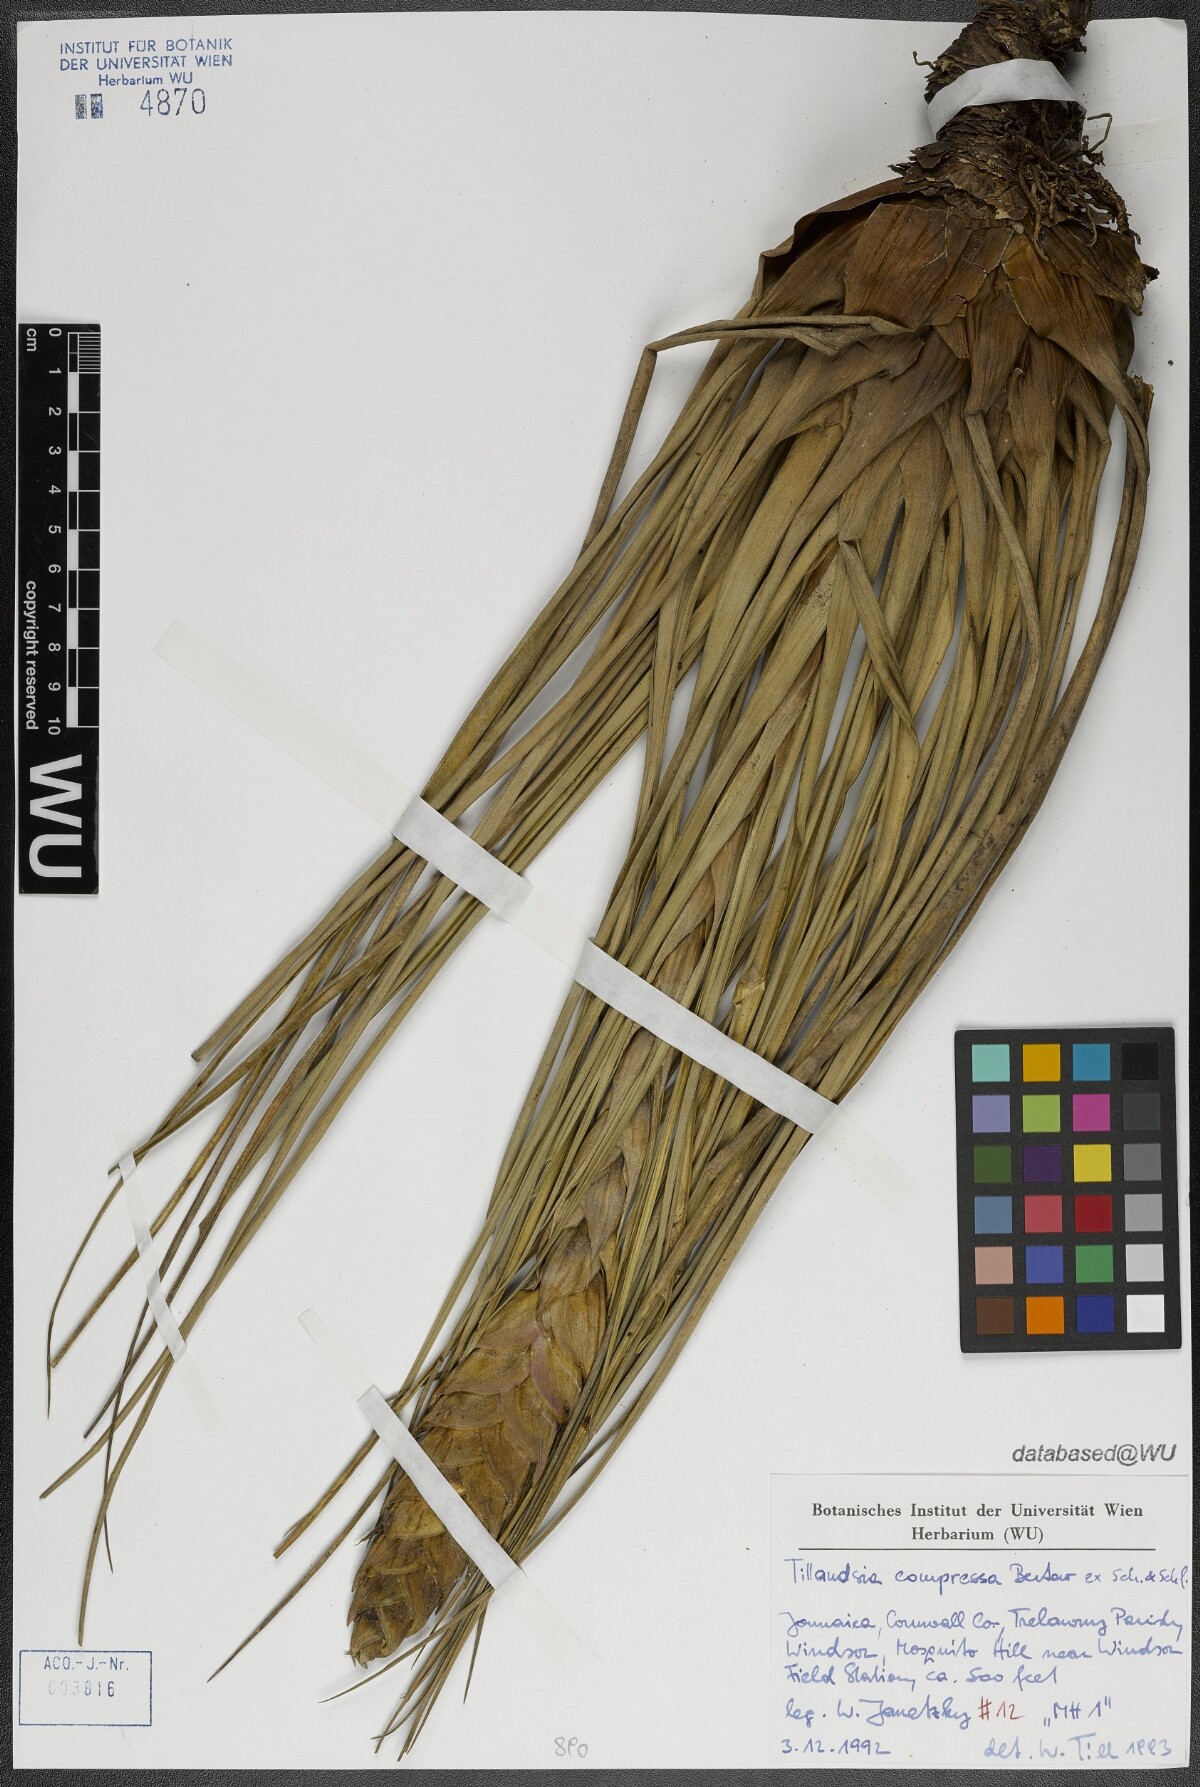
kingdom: Plantae
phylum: Tracheophyta
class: Liliopsida
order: Poales
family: Bromeliaceae
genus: Tillandsia
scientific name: Tillandsia compressa
